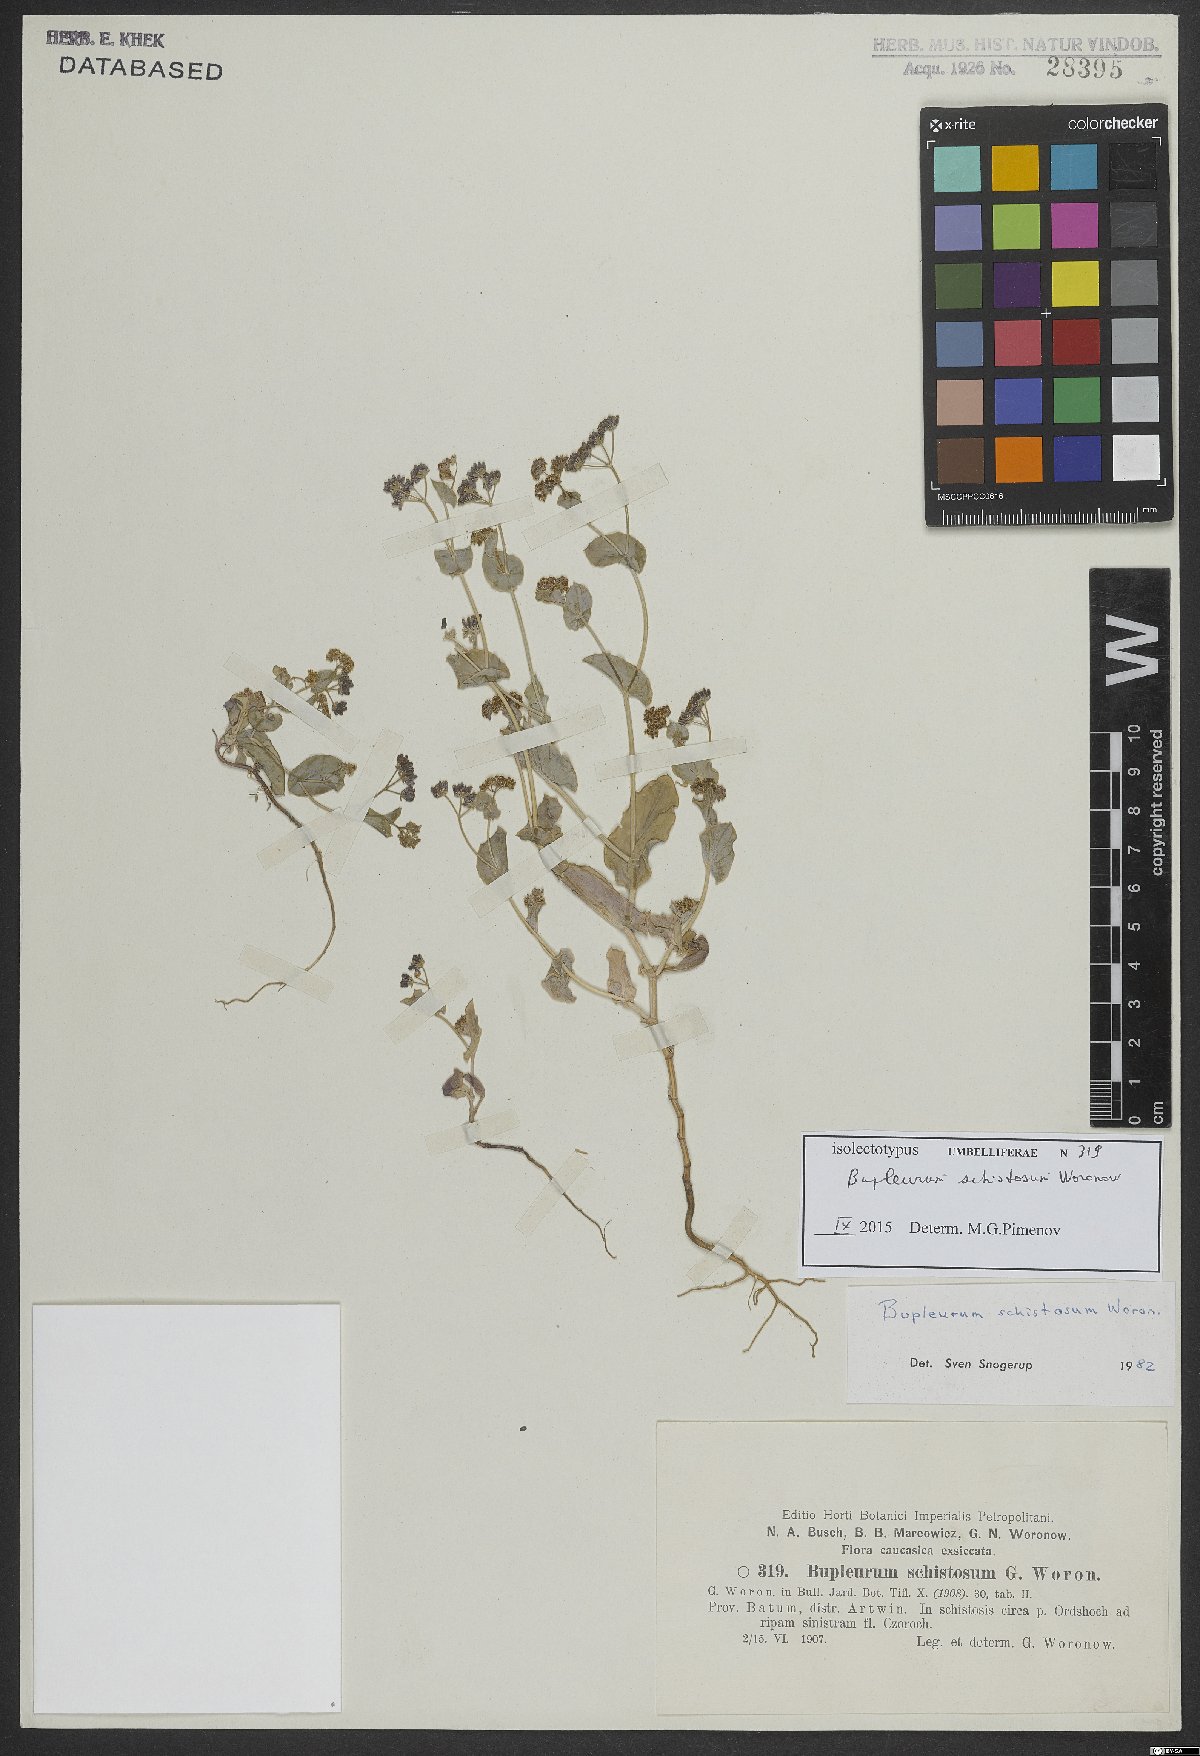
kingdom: Plantae
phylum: Tracheophyta
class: Magnoliopsida
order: Apiales
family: Apiaceae
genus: Bupleurum
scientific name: Bupleurum schistosum
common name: Divided thoroughwax
